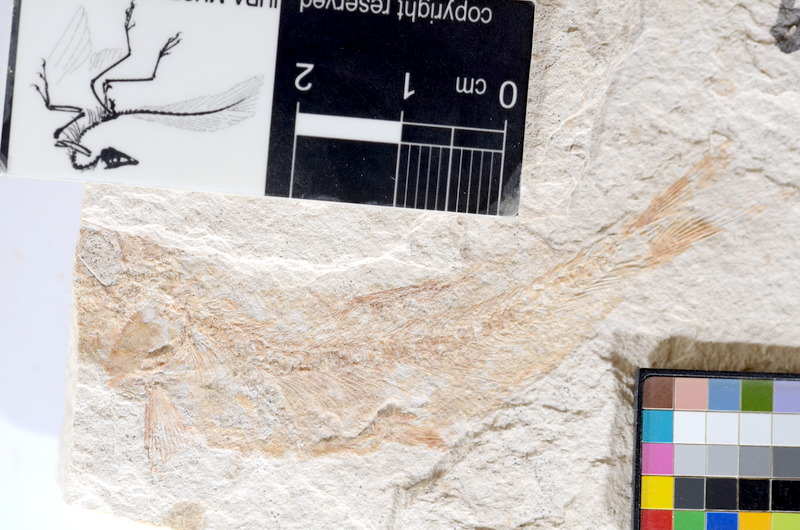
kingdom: Animalia
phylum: Chordata
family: Ascalaboidae
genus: Tharsis
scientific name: Tharsis dubius
